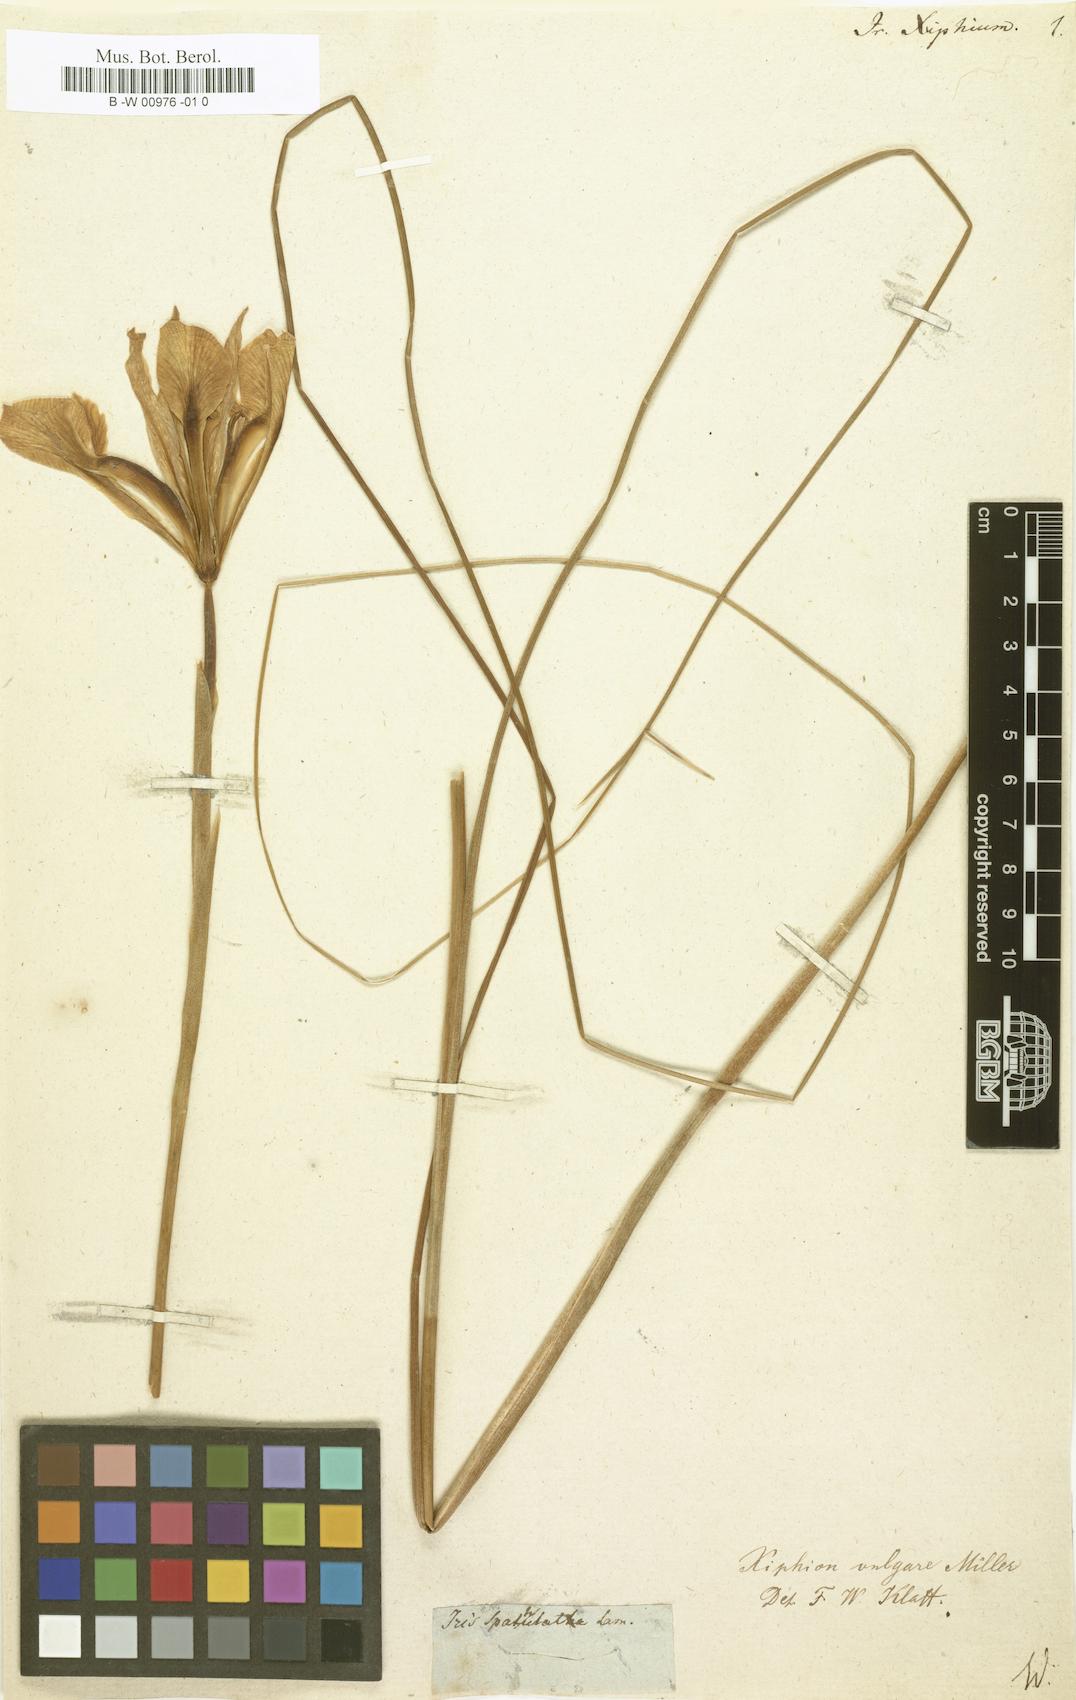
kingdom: Plantae
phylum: Tracheophyta
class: Liliopsida
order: Asparagales
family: Iridaceae
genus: Iris
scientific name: Iris xiphium
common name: Spanish iris
